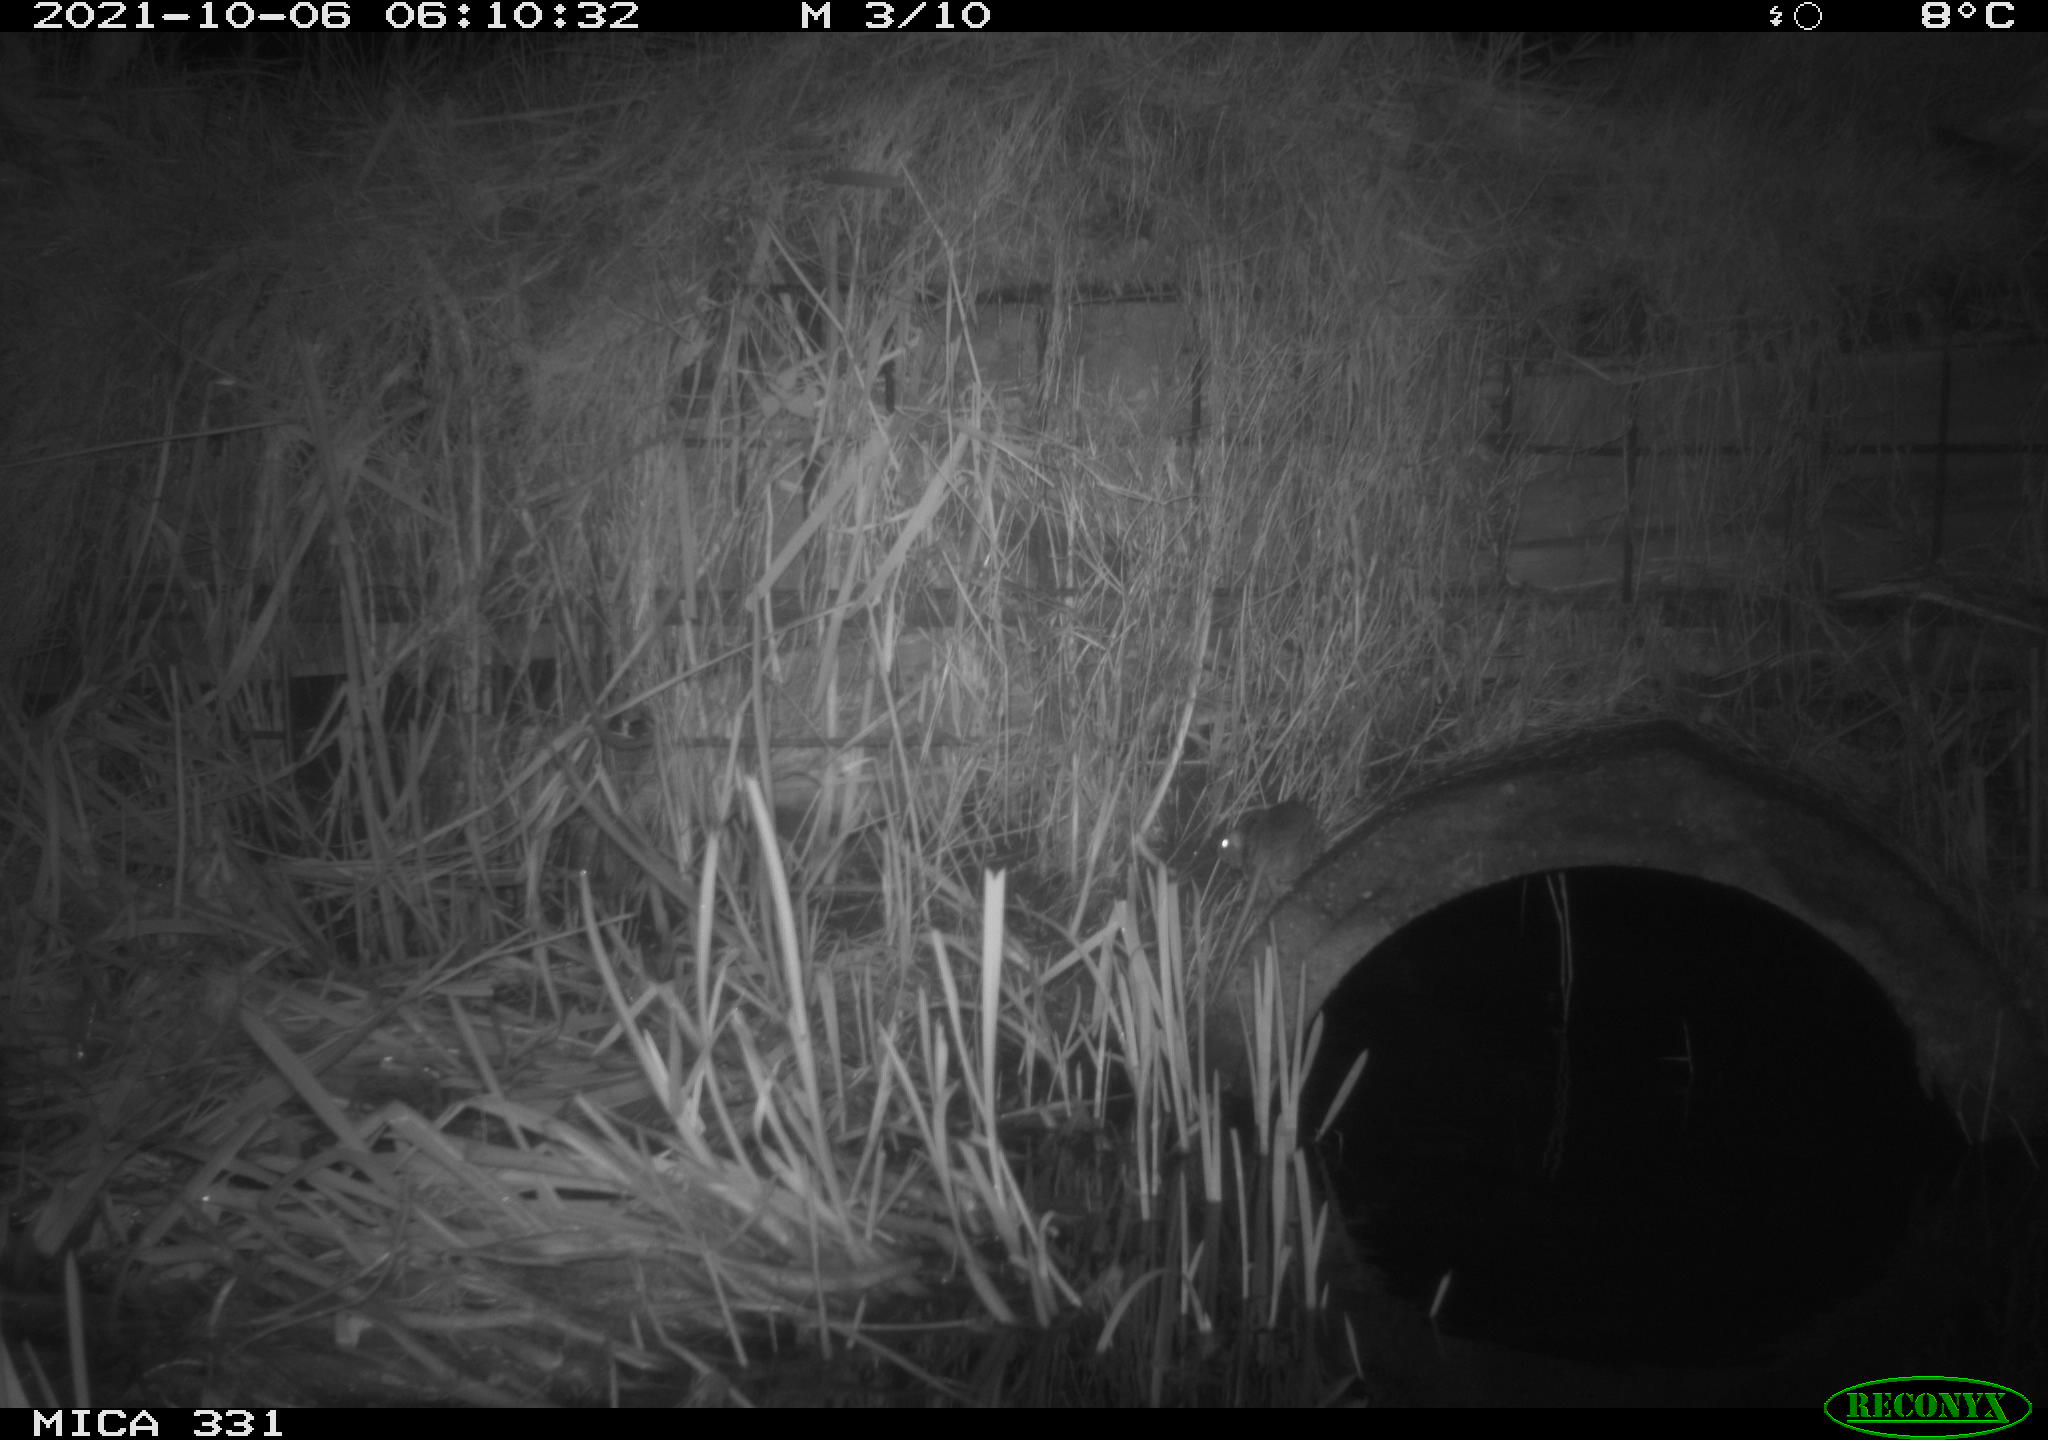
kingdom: Animalia
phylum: Chordata
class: Mammalia
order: Rodentia
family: Muridae
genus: Rattus
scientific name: Rattus norvegicus
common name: Brown rat
